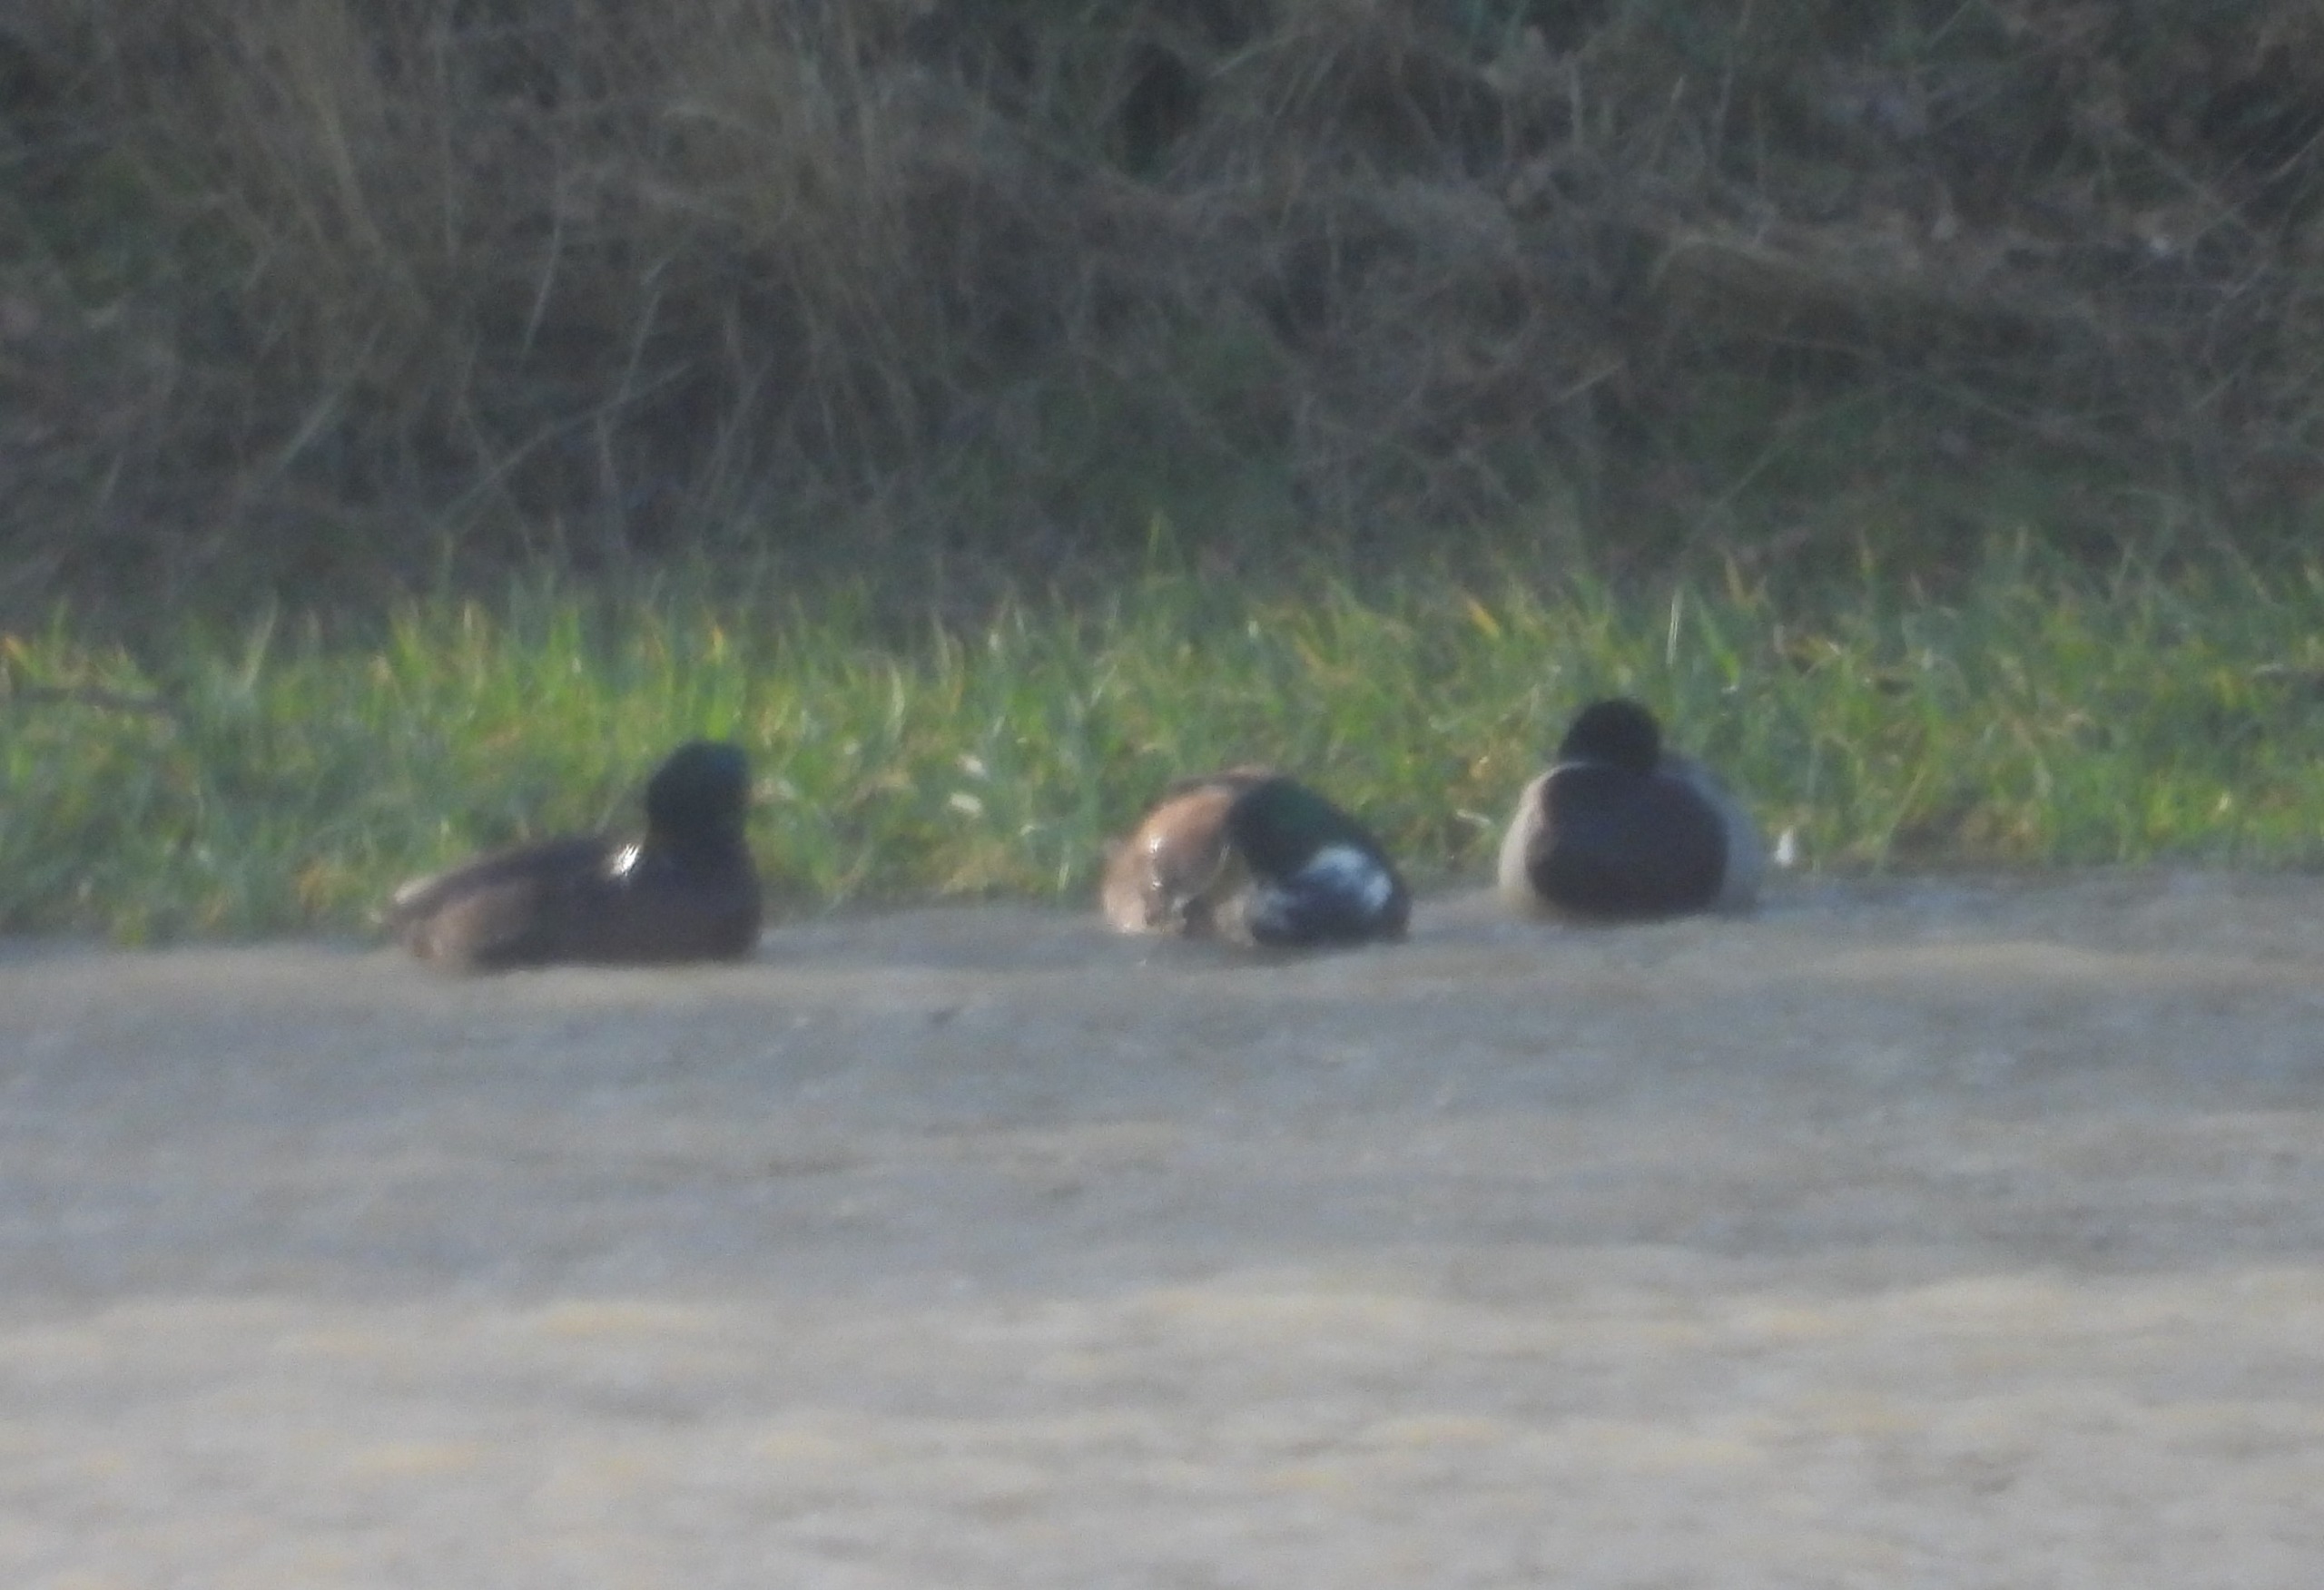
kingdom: Animalia
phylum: Chordata
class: Aves
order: Anseriformes
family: Anatidae
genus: Anas
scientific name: Anas platyrhynchos
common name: Gråand
